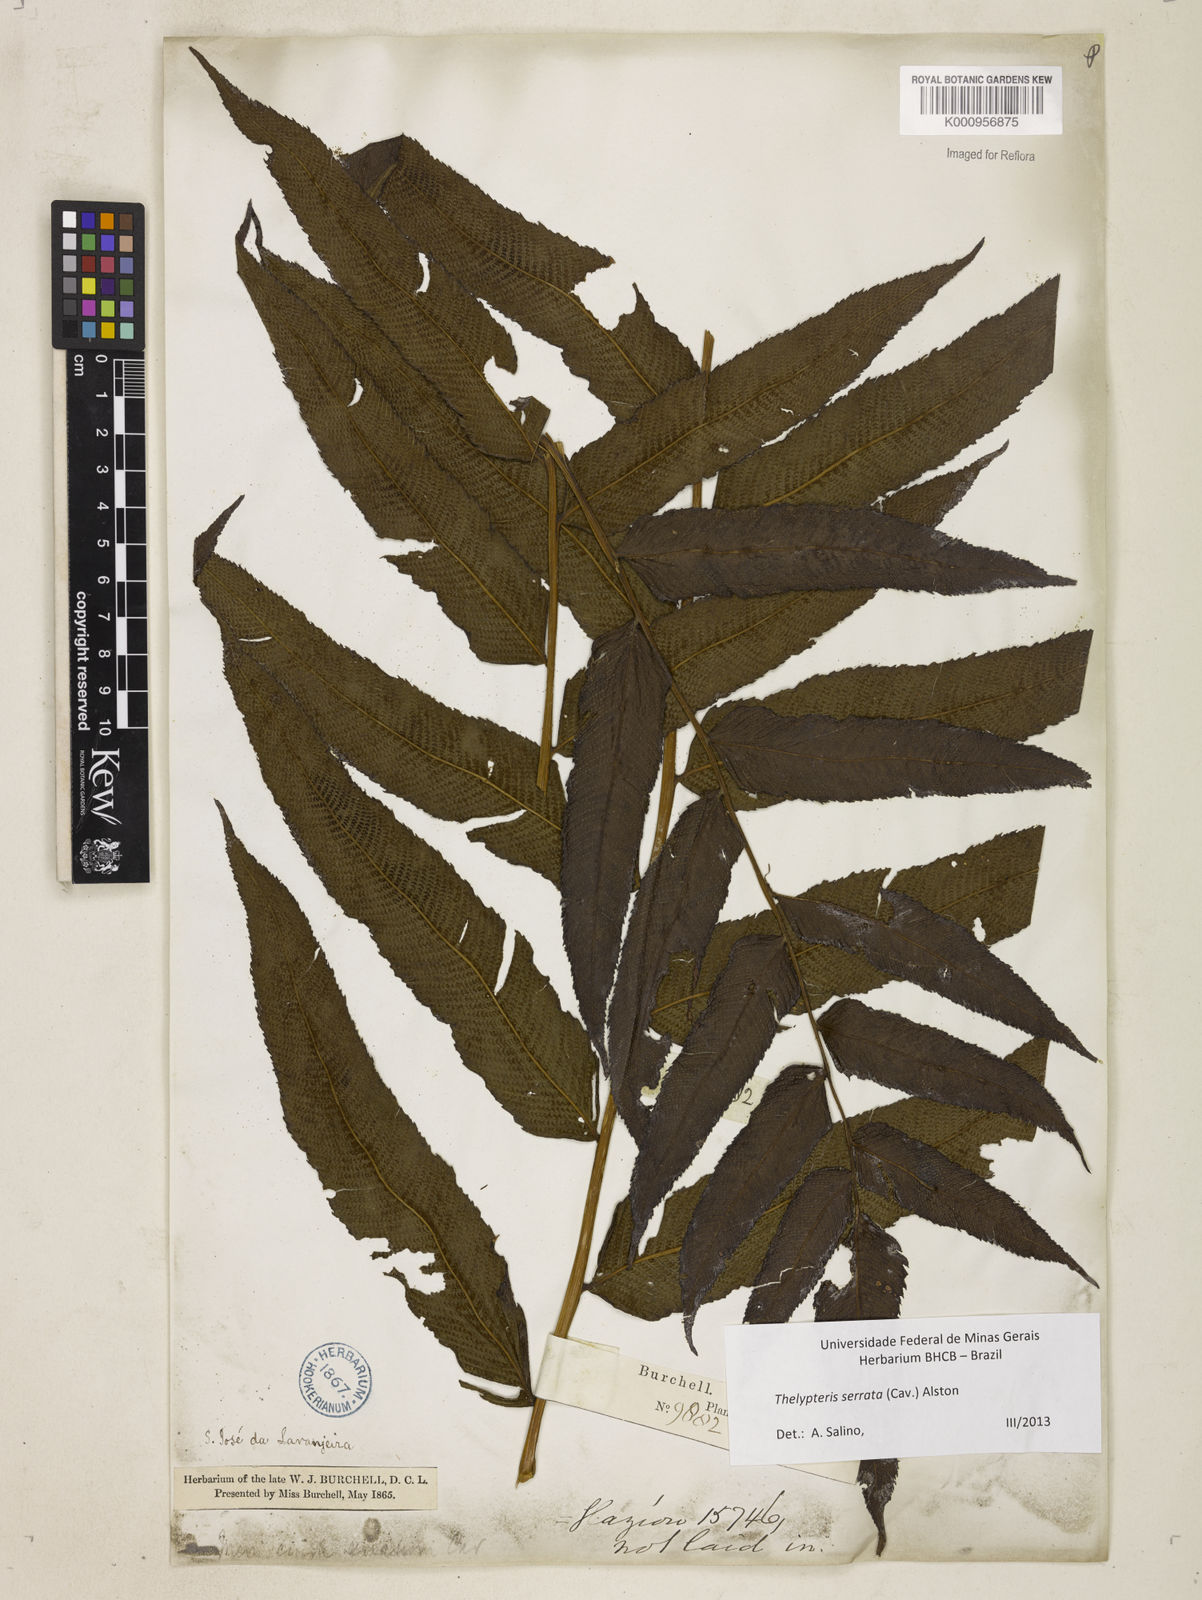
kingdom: Plantae
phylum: Tracheophyta
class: Polypodiopsida
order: Polypodiales
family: Thelypteridaceae
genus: Meniscium
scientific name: Meniscium serratum
